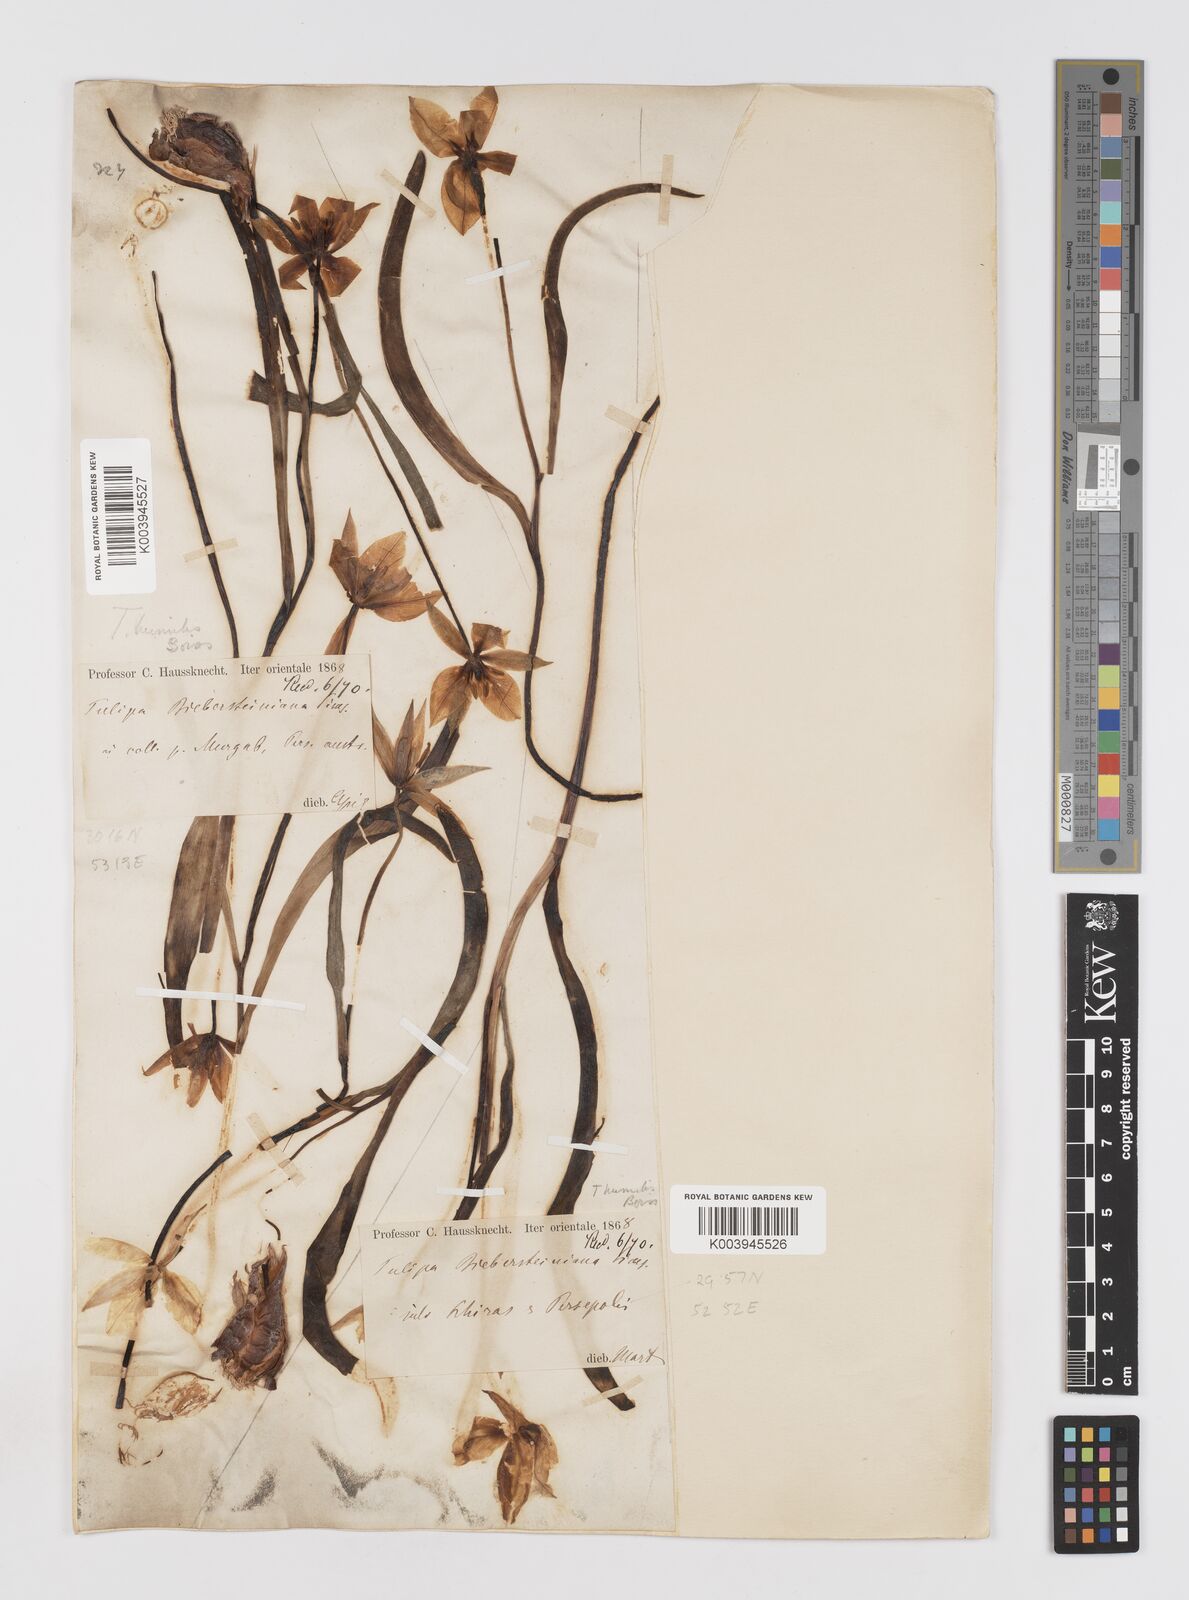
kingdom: Plantae
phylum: Tracheophyta
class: Liliopsida
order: Liliales
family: Liliaceae
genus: Tulipa
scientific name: Tulipa biflora
